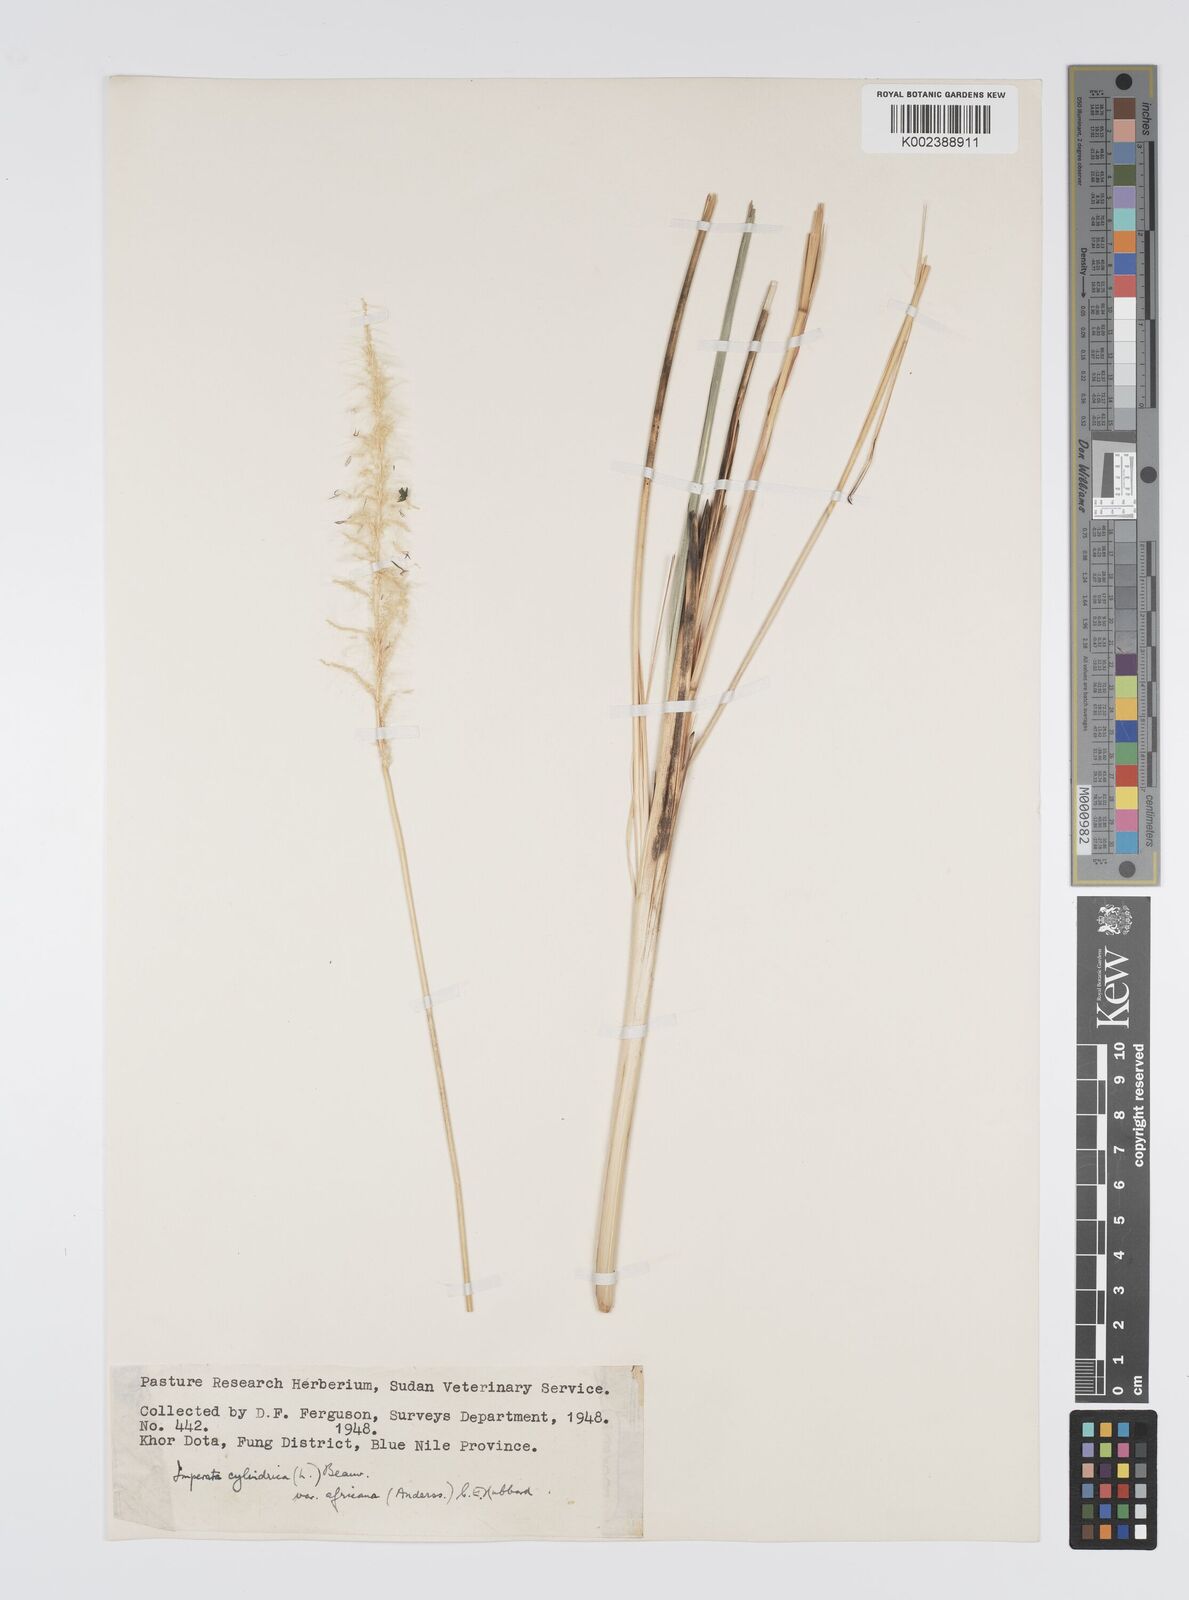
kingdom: Plantae
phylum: Tracheophyta
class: Liliopsida
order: Poales
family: Poaceae
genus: Imperata
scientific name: Imperata cylindrica
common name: Cogongrass
